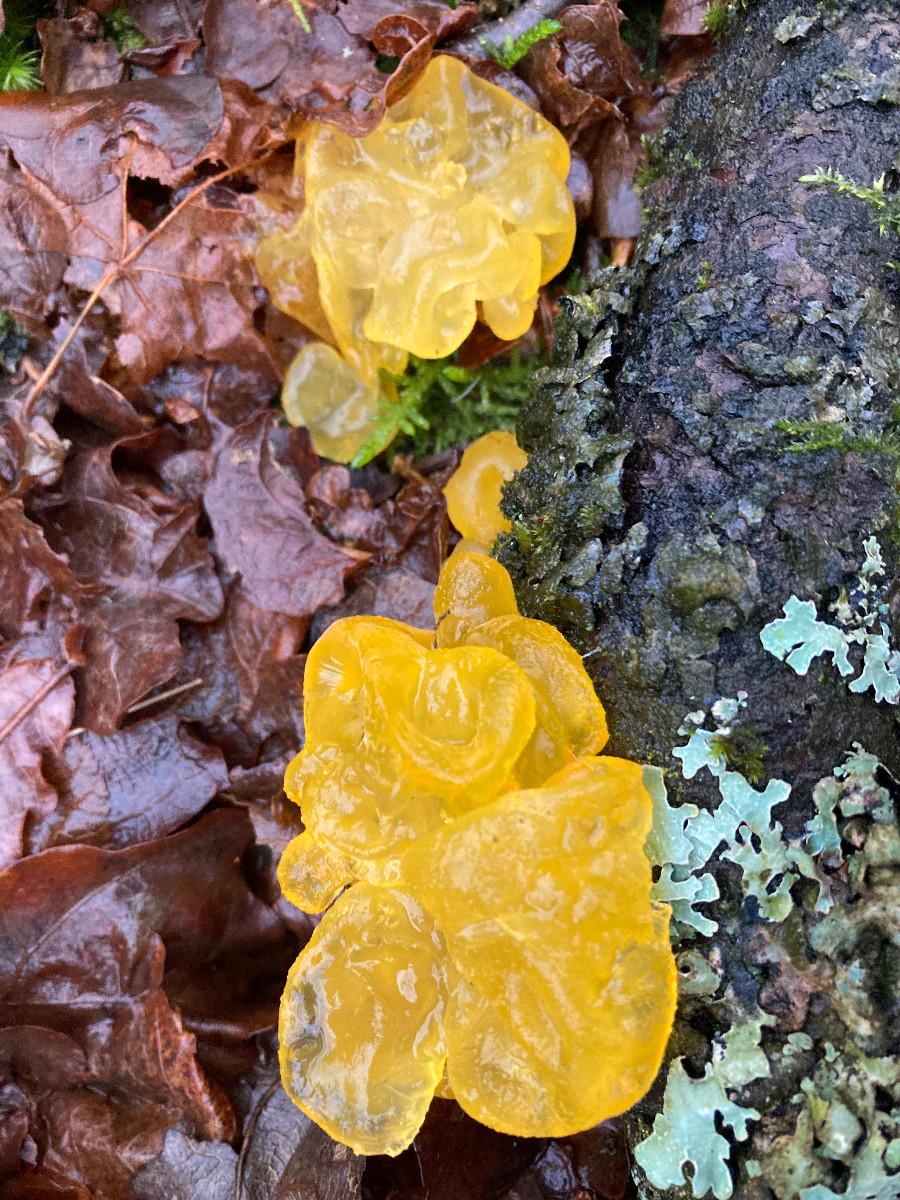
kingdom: Fungi
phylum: Basidiomycota
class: Tremellomycetes
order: Tremellales
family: Tremellaceae
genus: Tremella
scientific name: Tremella mesenterica
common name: gul bævresvamp
